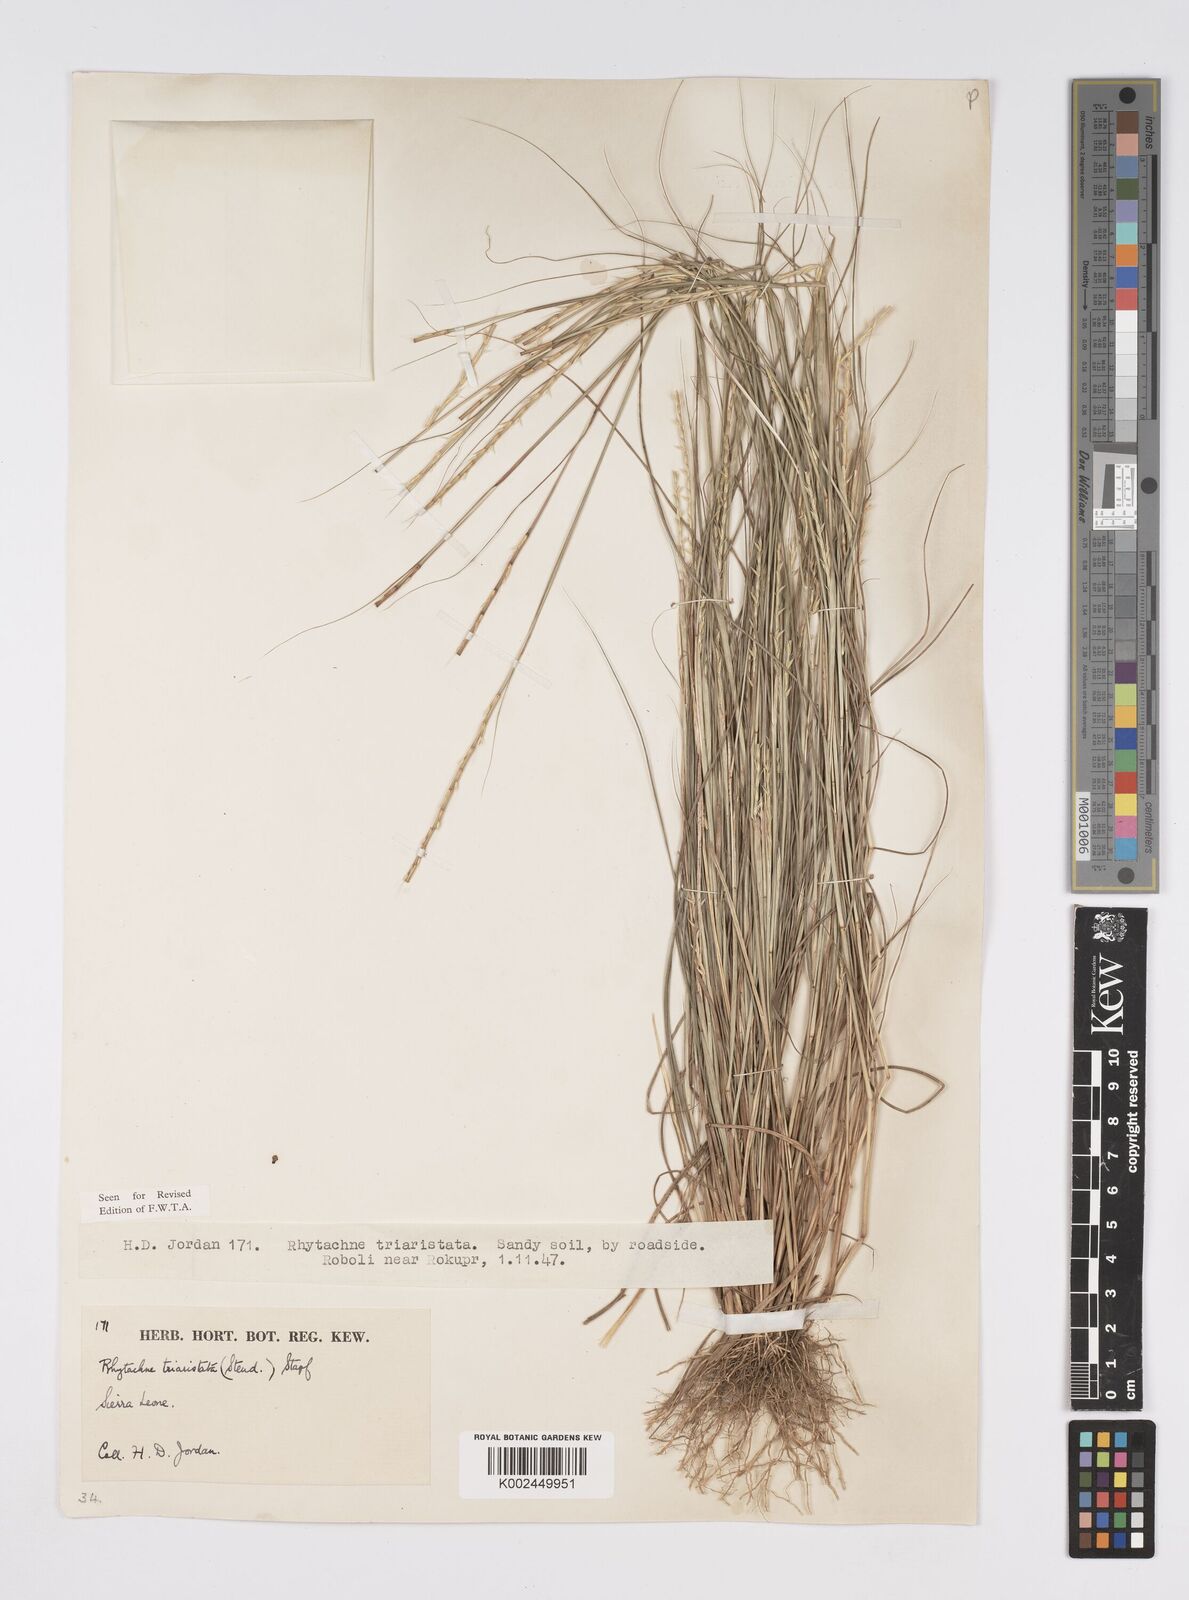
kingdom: Plantae
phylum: Tracheophyta
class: Liliopsida
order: Poales
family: Poaceae
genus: Rhytachne
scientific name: Rhytachne triaristata
